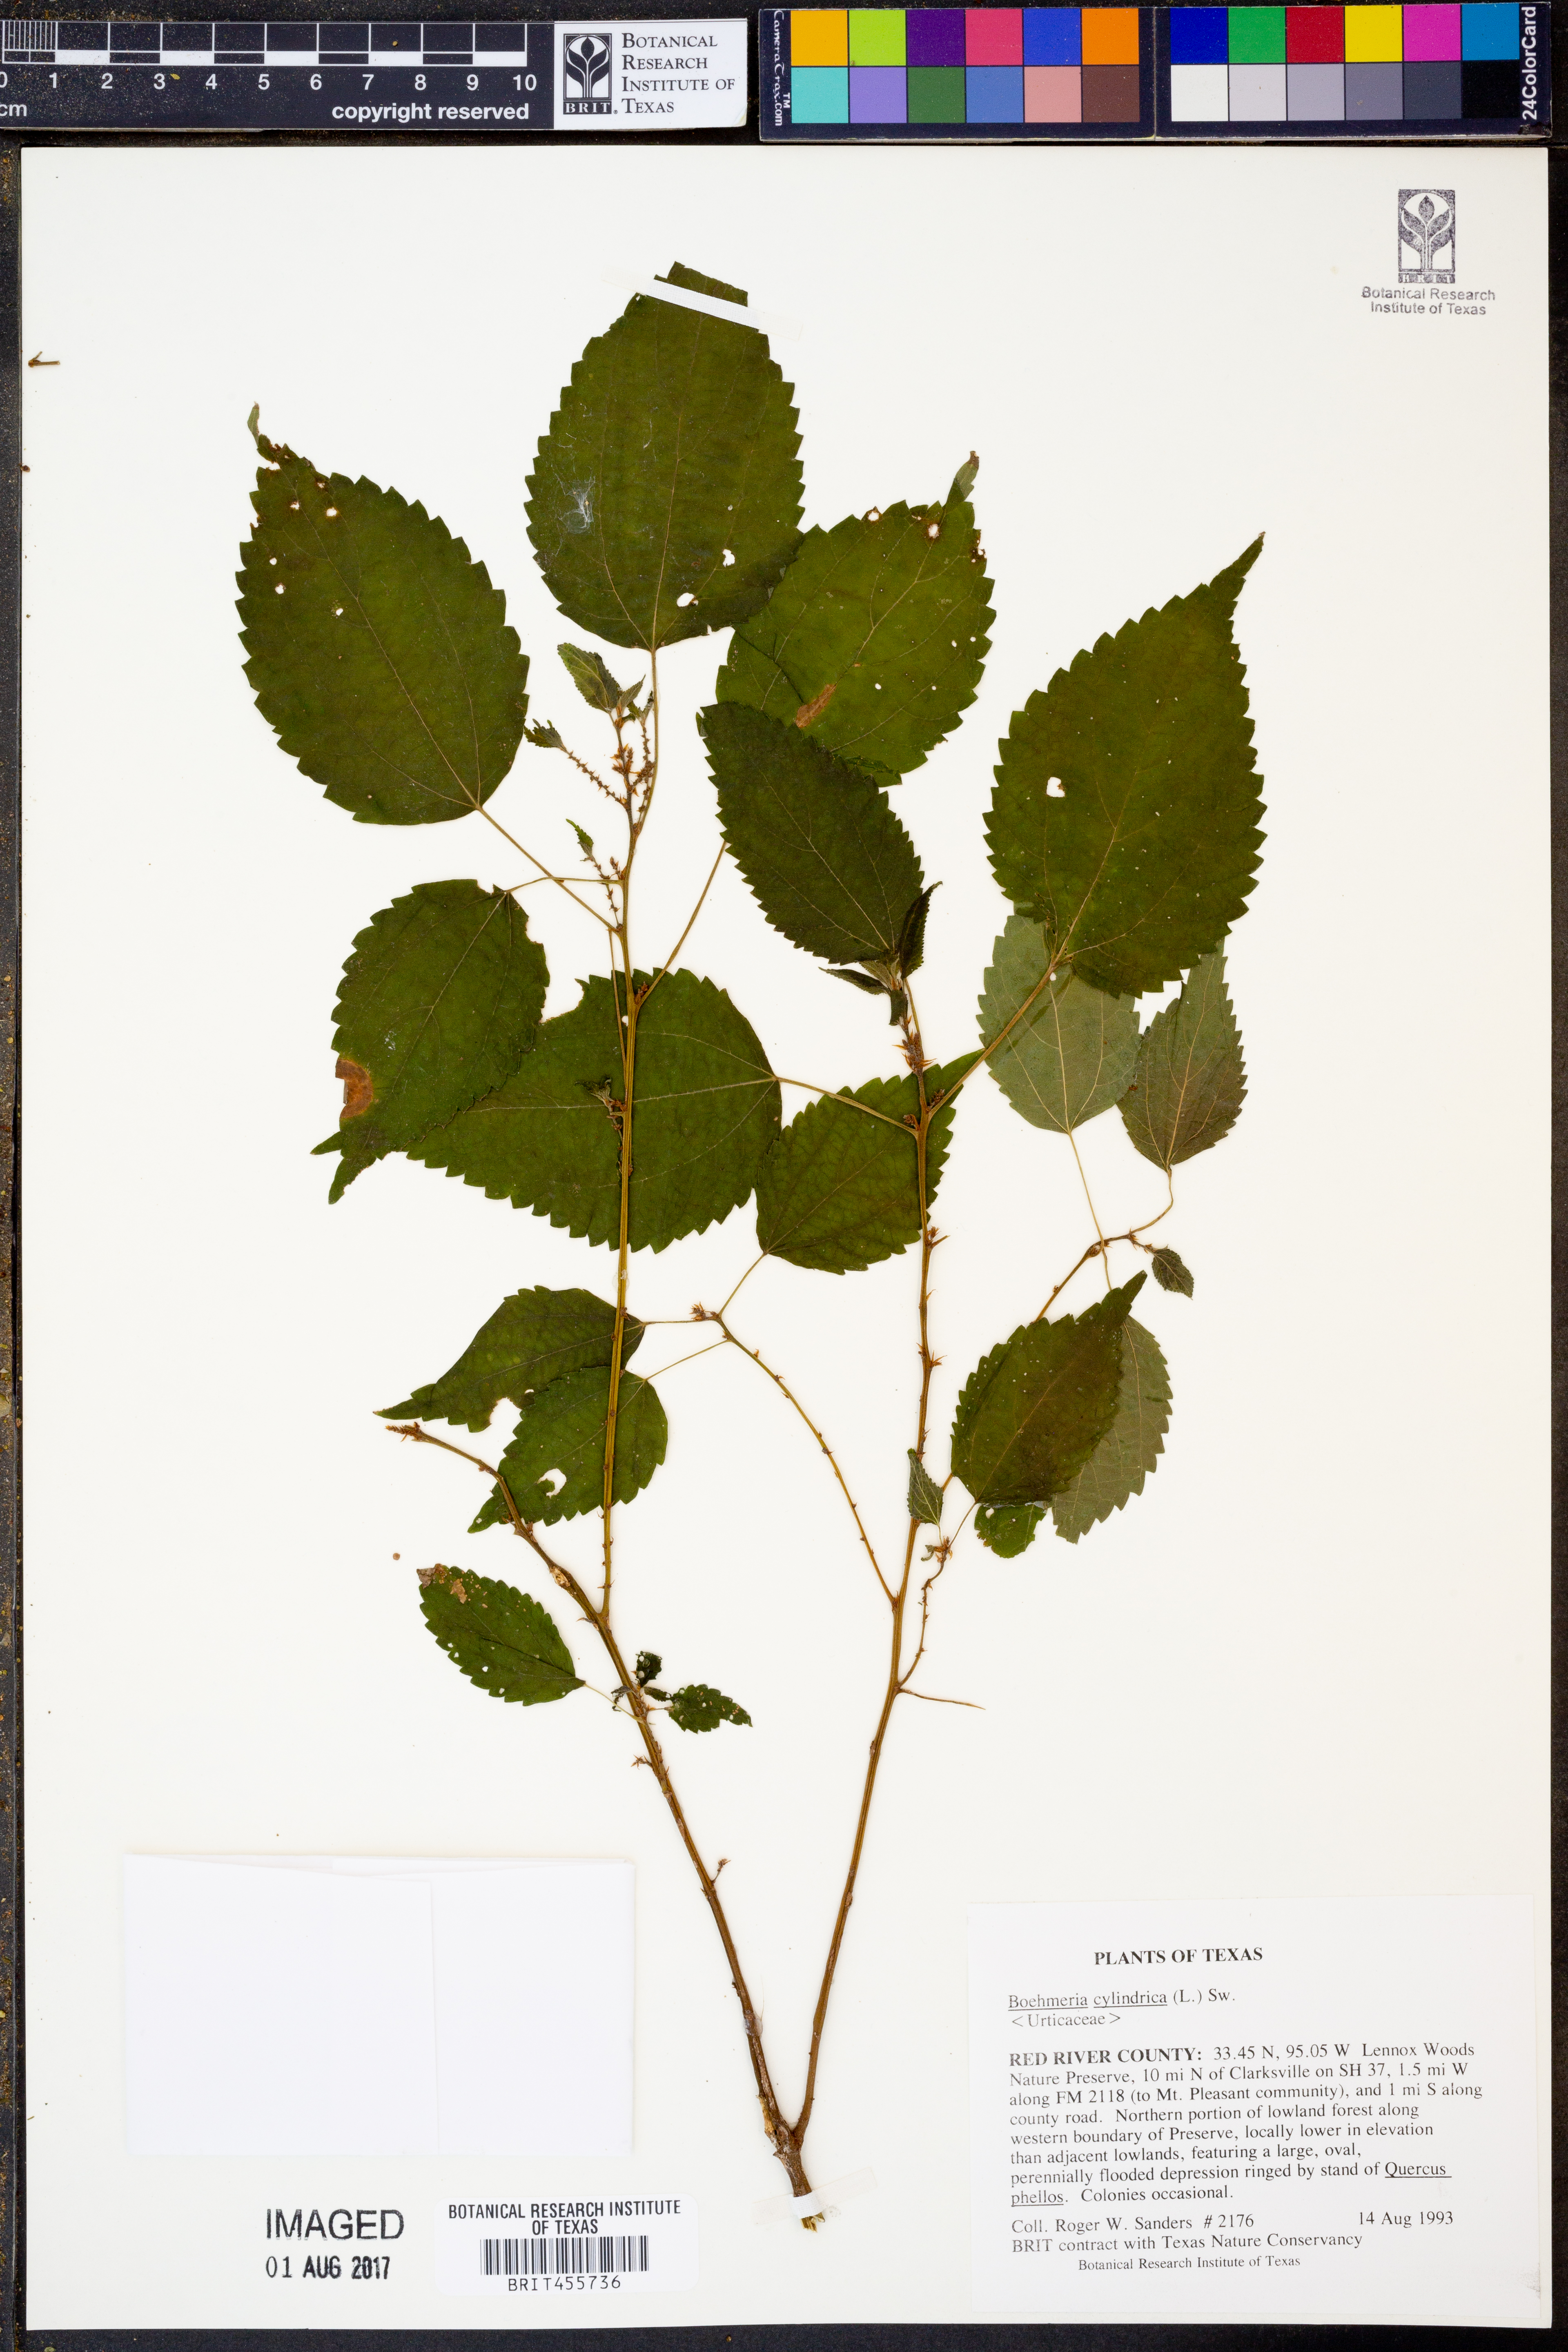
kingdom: Plantae
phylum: Tracheophyta
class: Magnoliopsida
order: Rosales
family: Urticaceae
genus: Boehmeria
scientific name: Boehmeria cylindrica
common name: Bog-hemp
